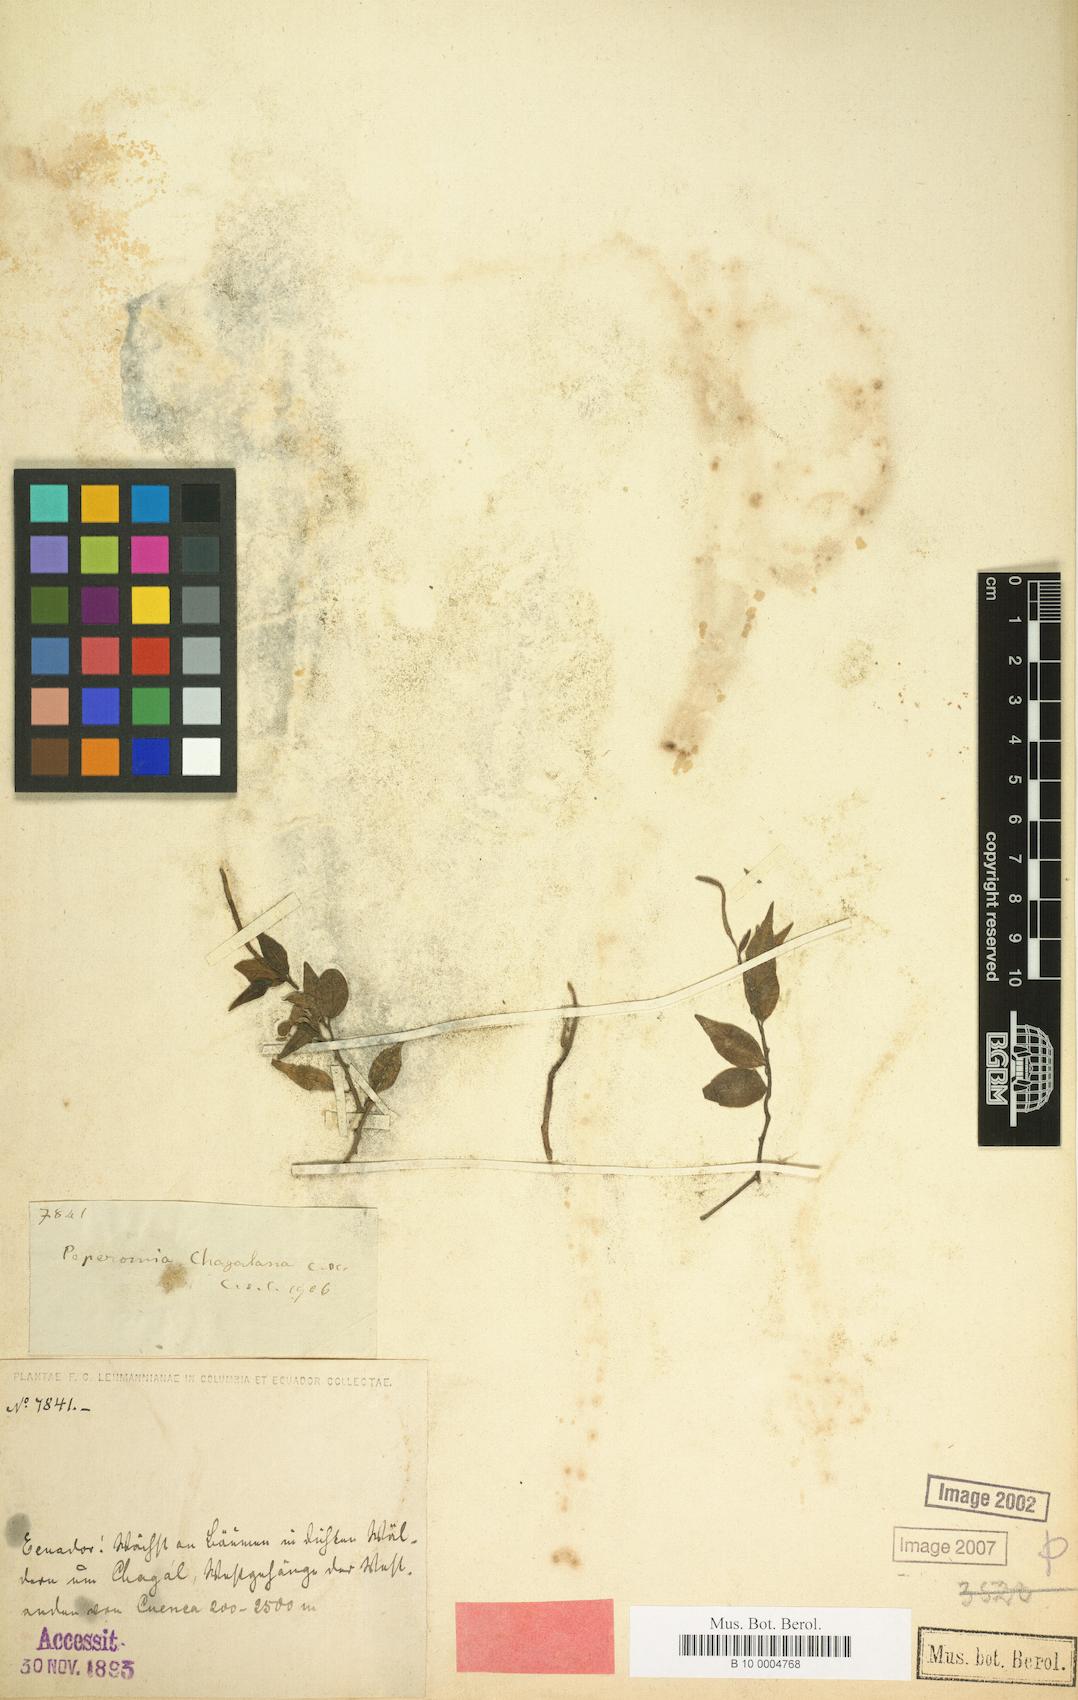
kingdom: Plantae
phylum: Tracheophyta
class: Magnoliopsida
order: Piperales
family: Piperaceae
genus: Peperomia
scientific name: Peperomia glabella
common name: Cypress peperomia
